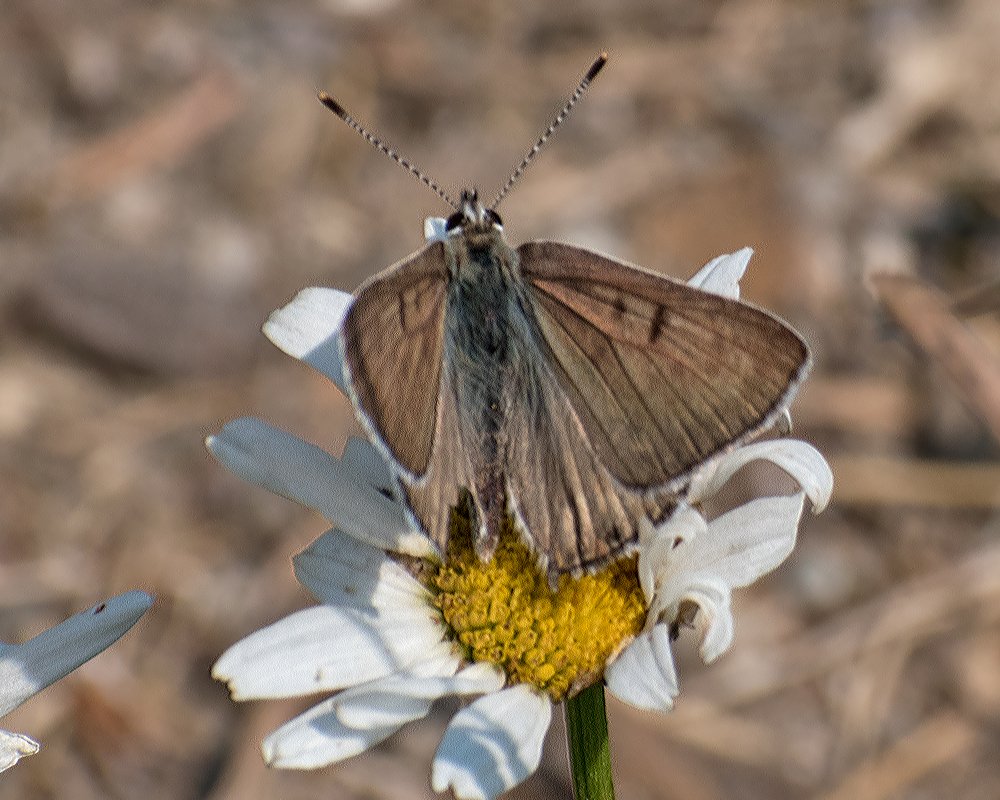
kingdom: Animalia
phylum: Arthropoda
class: Insecta
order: Lepidoptera
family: Lycaenidae
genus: Lycaena
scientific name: Lycaena editha
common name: Edith's Copper
